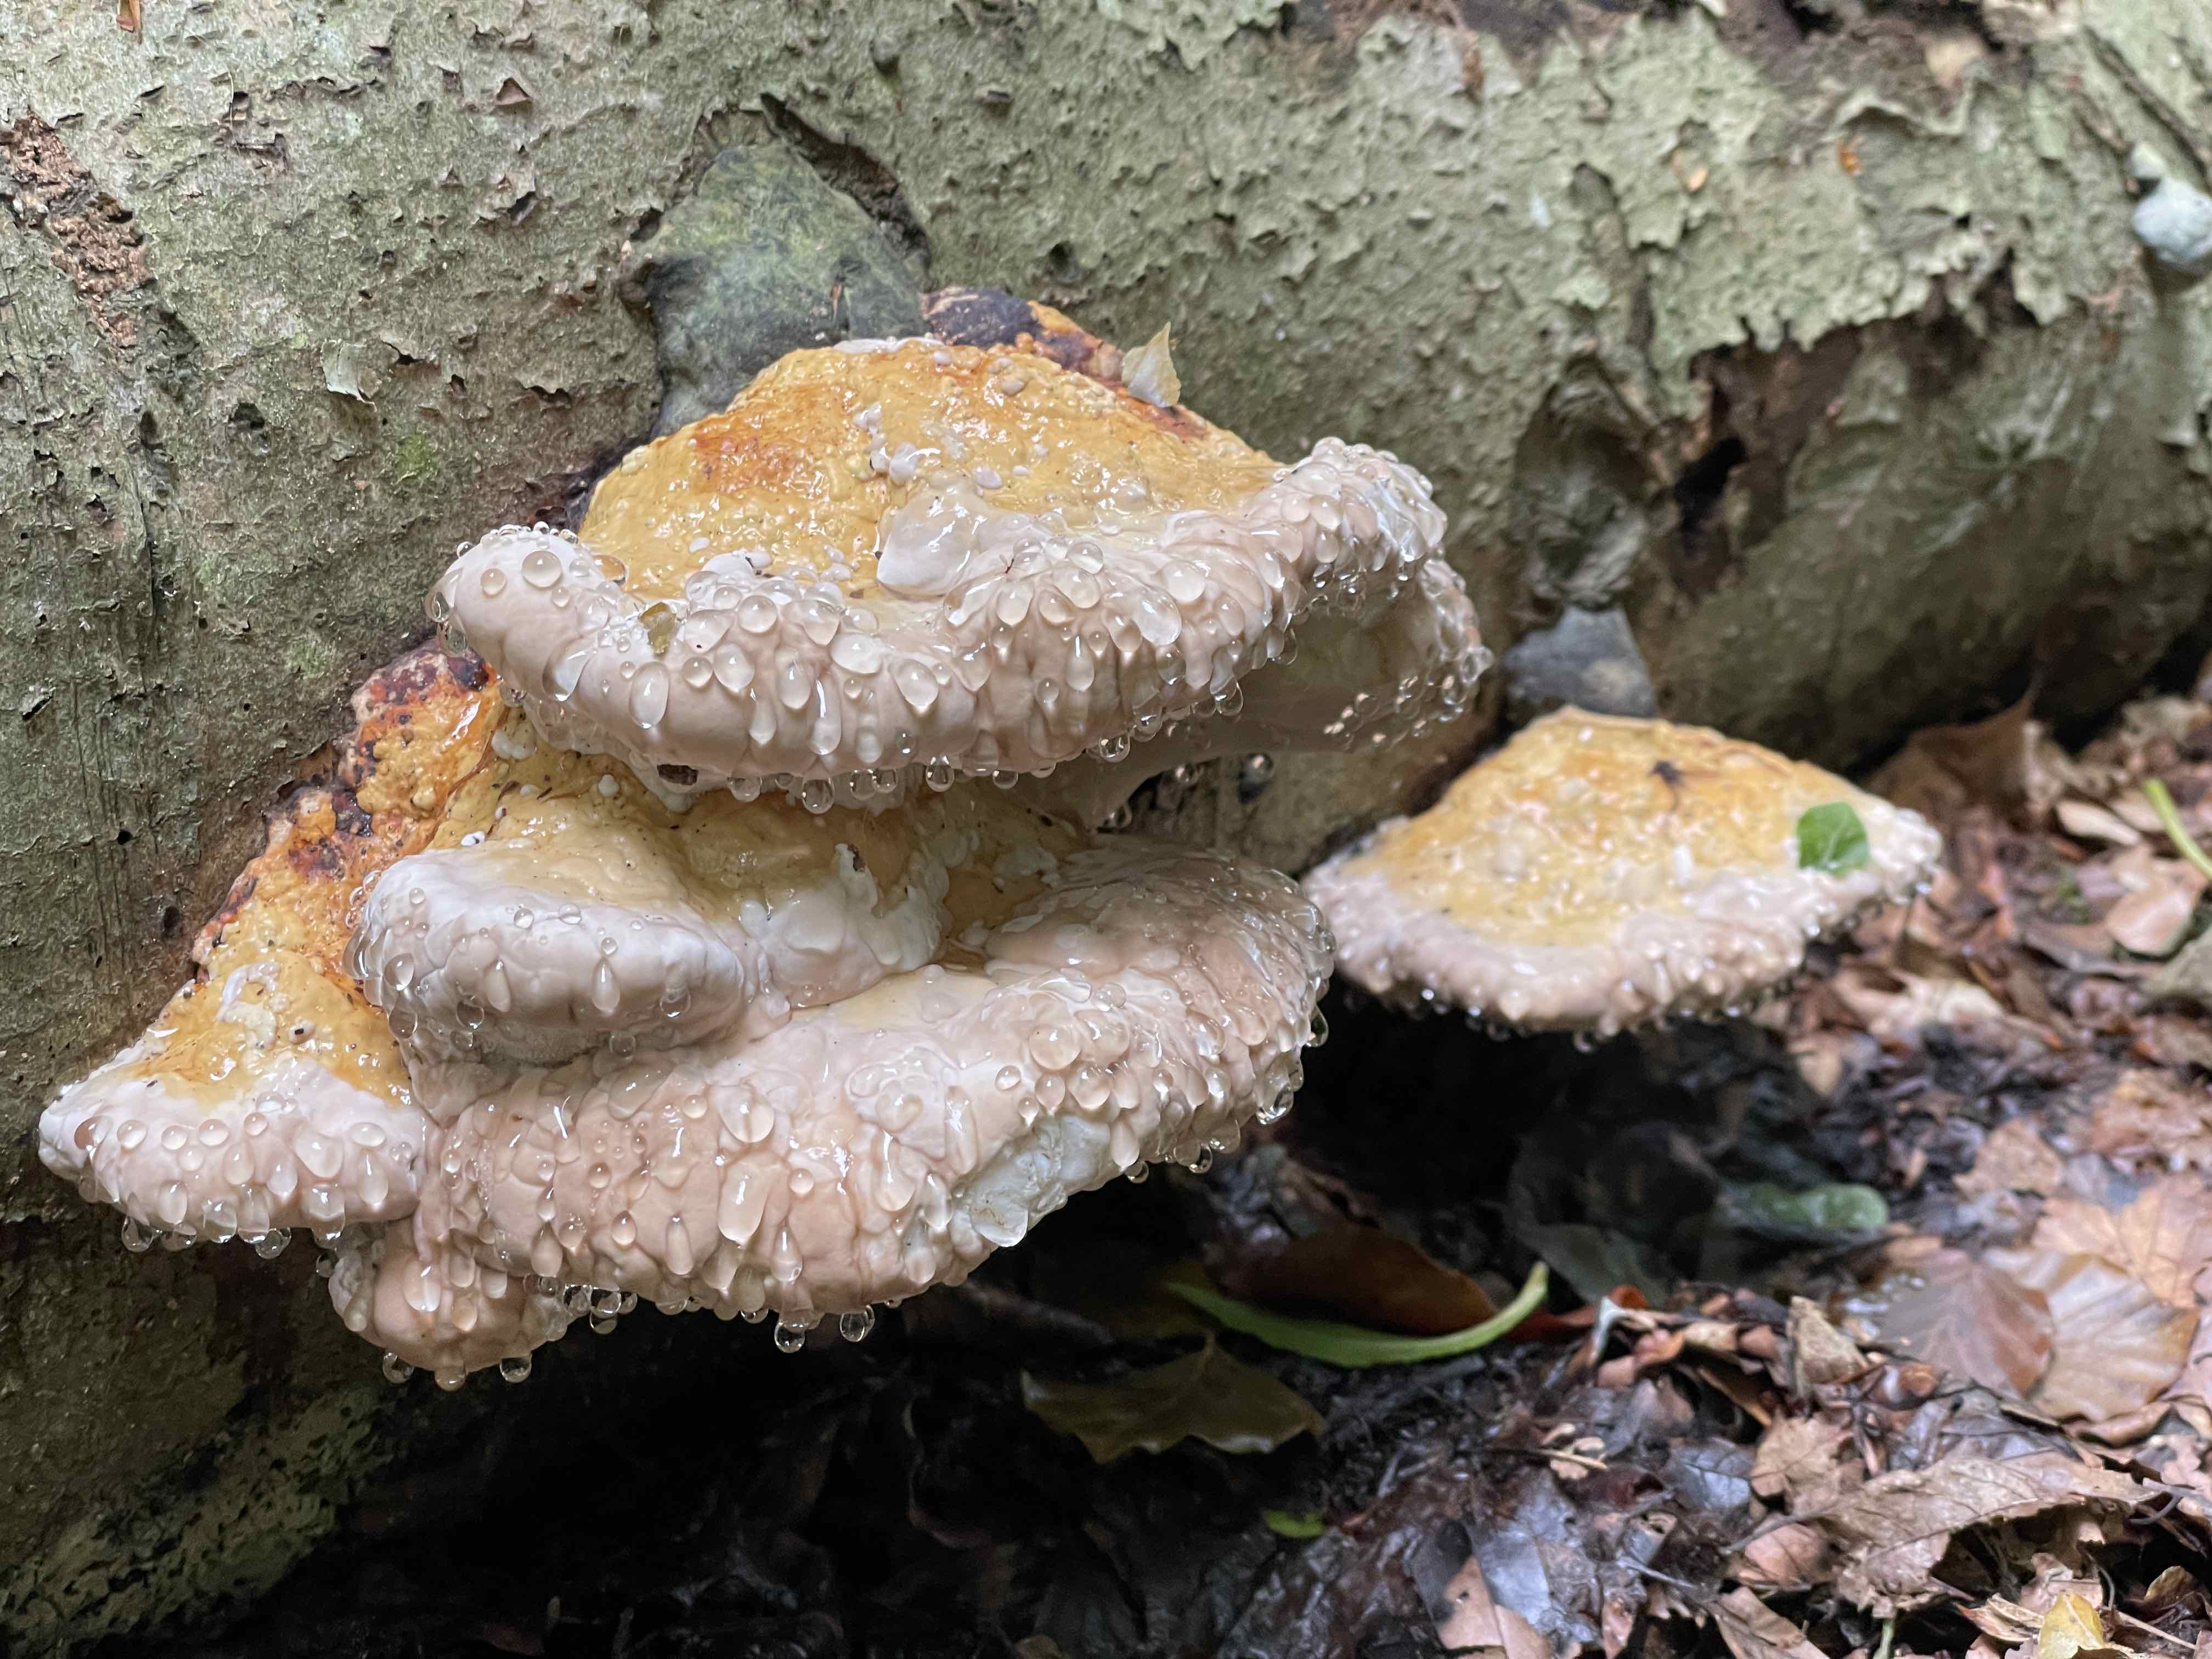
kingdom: Fungi
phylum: Basidiomycota
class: Agaricomycetes
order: Polyporales
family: Fomitopsidaceae
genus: Fomitopsis
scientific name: Fomitopsis pinicola
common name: randbæltet hovporesvamp
